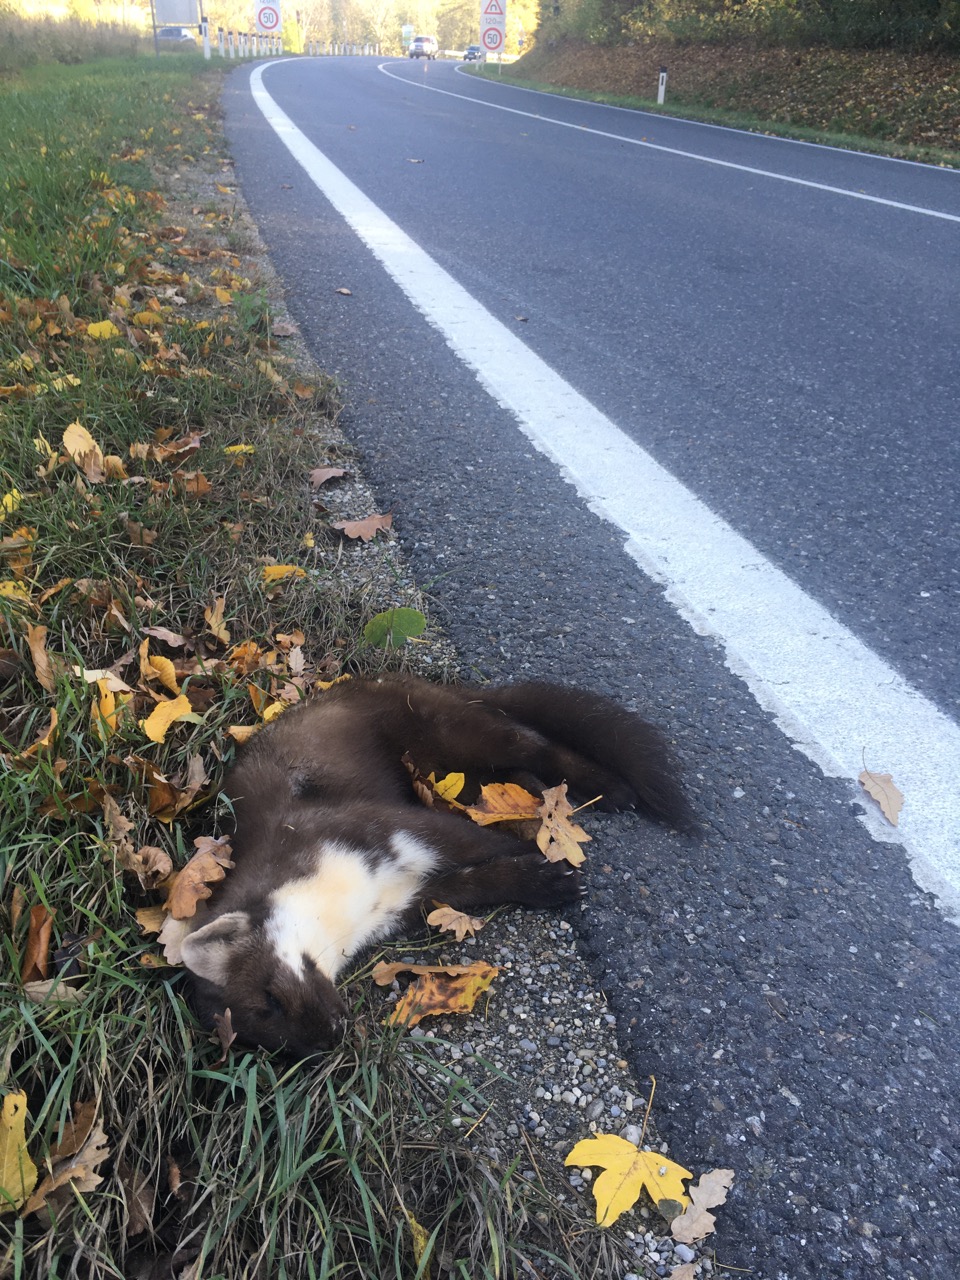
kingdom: Animalia
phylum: Chordata
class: Mammalia
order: Carnivora
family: Mustelidae
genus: Martes
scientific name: Martes foina
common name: Beech marten
